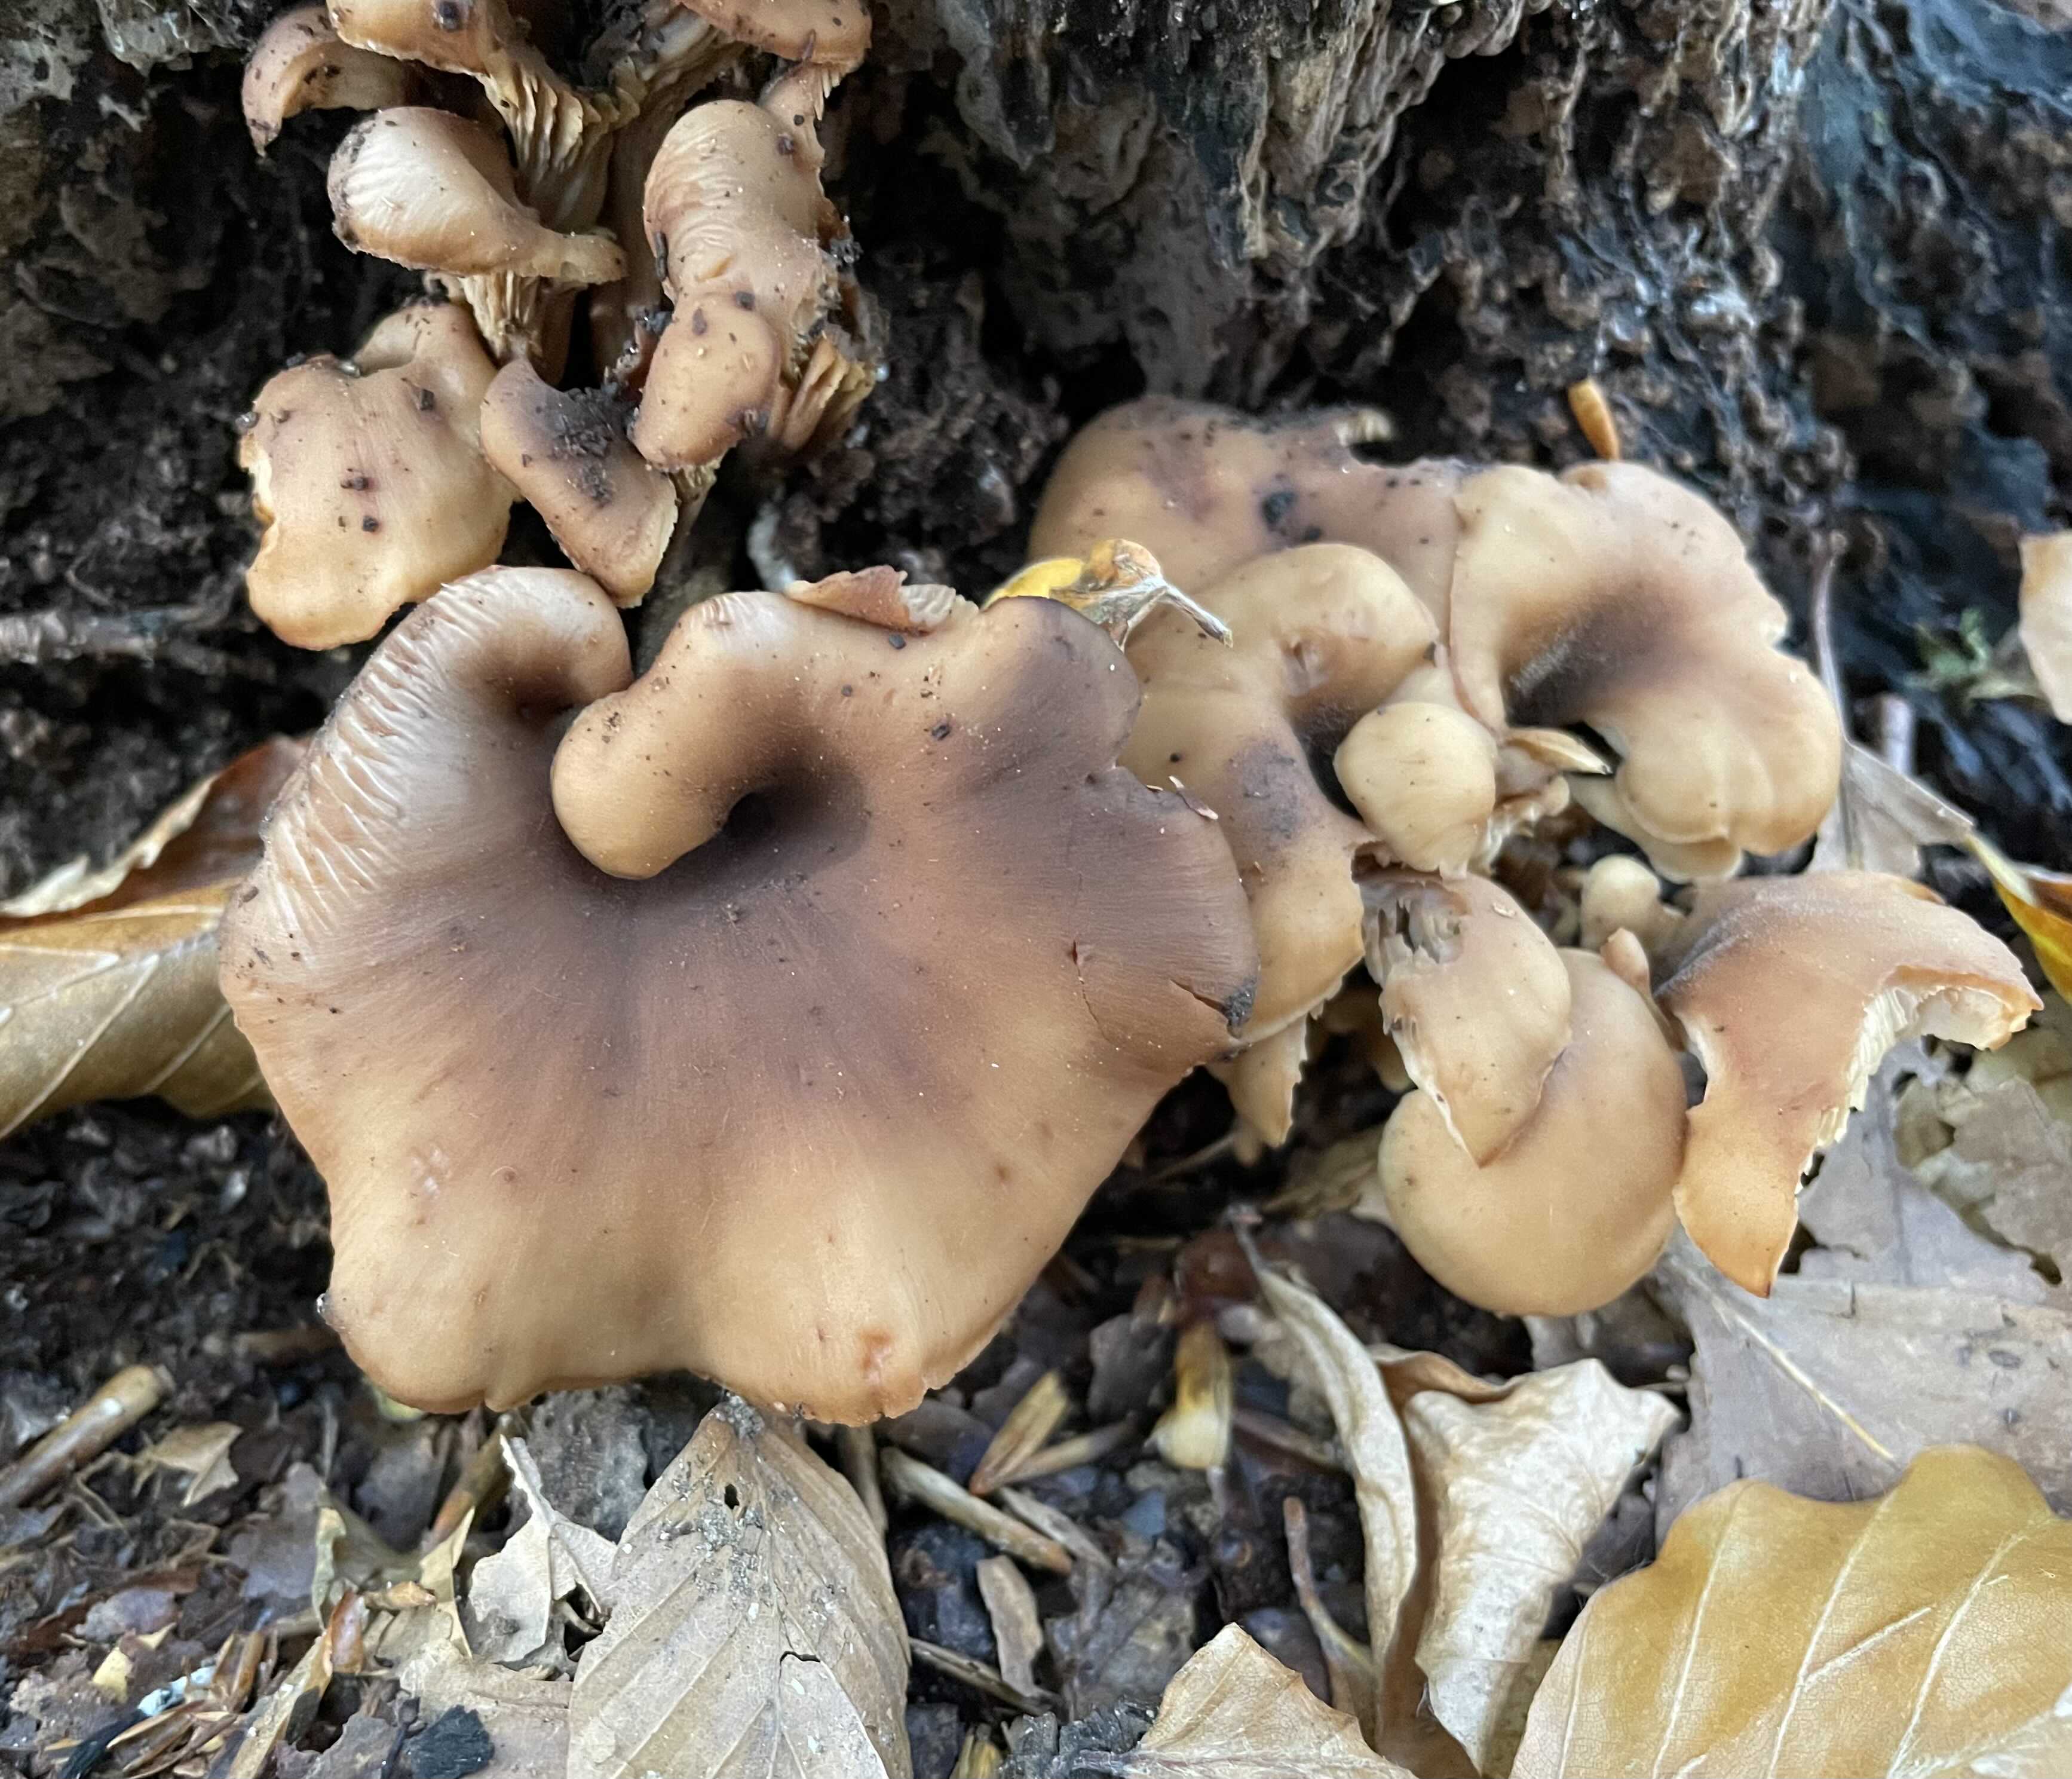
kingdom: Fungi
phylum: Basidiomycota
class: Agaricomycetes
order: Russulales
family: Auriscalpiaceae
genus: Lentinellus
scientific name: Lentinellus cochleatus
